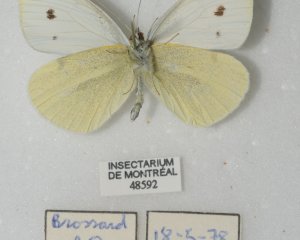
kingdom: Animalia
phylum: Arthropoda
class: Insecta
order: Lepidoptera
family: Pieridae
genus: Pieris
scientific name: Pieris rapae
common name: Cabbage White
